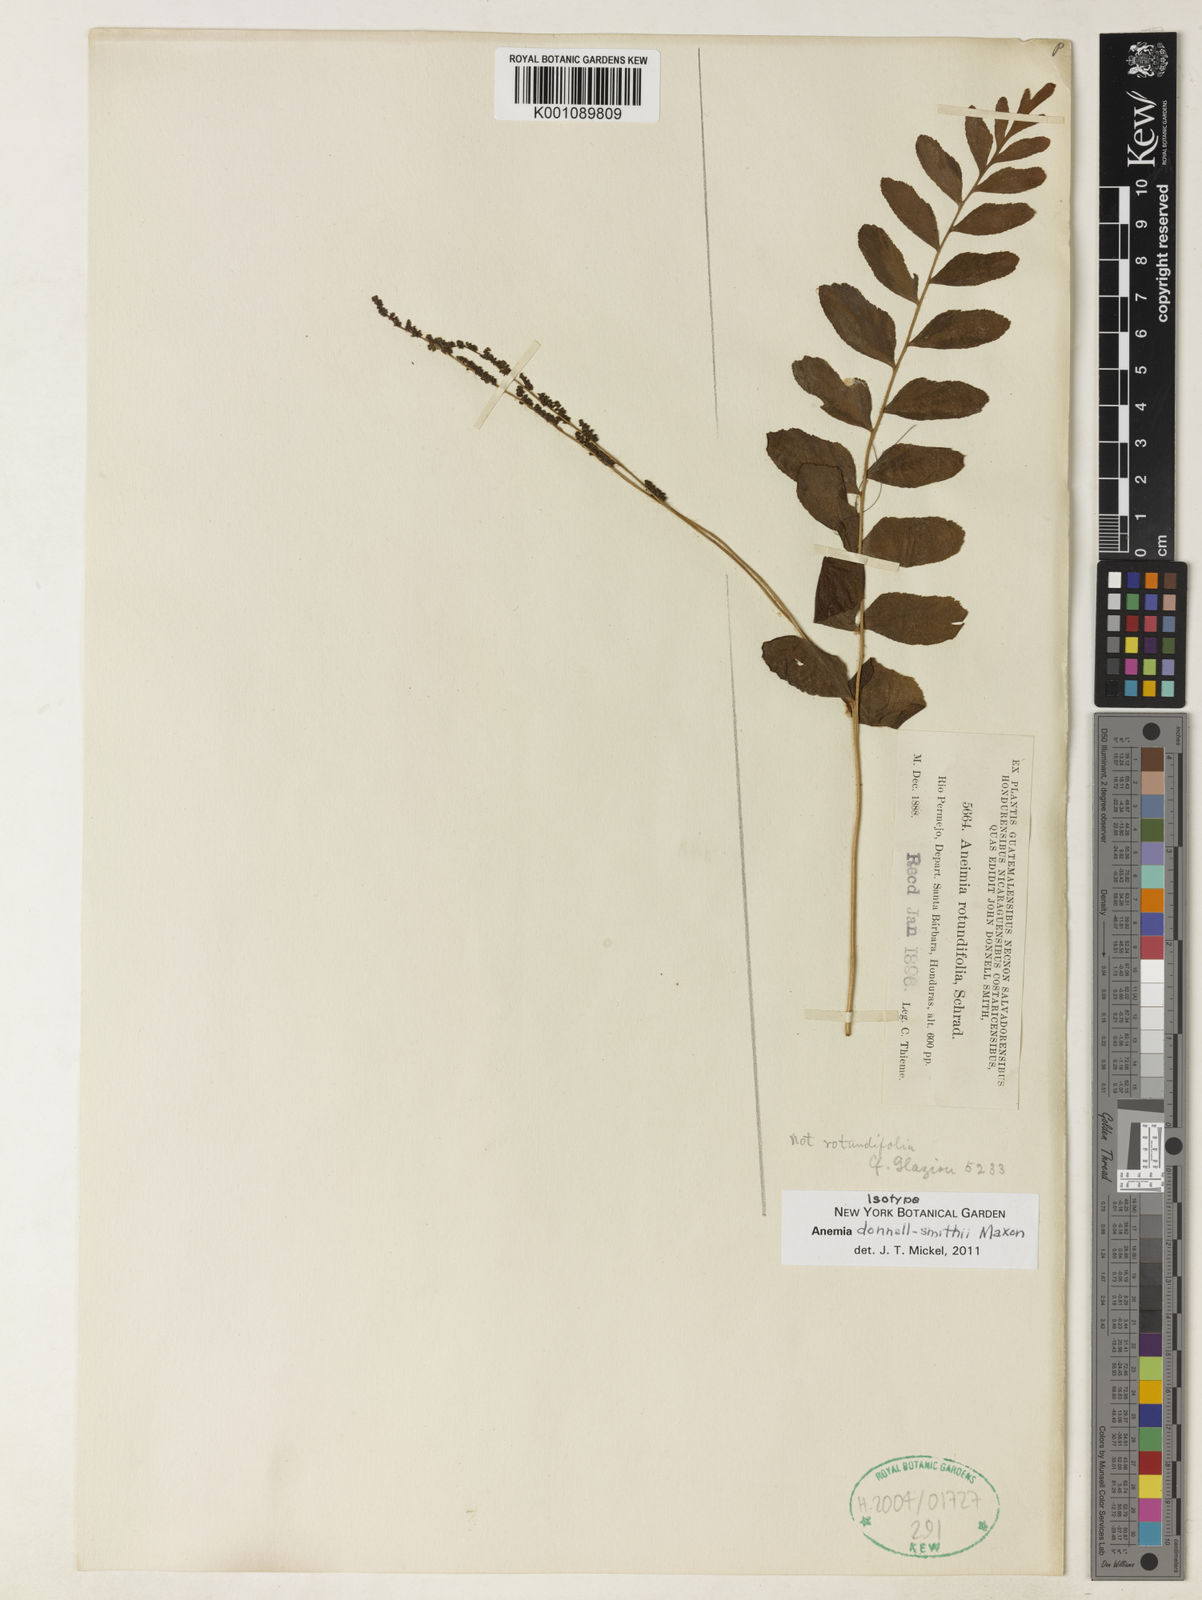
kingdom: Plantae
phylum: Tracheophyta
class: Polypodiopsida
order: Schizaeales
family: Anemiaceae
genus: Anemia
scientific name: Anemia donnell-smithii
